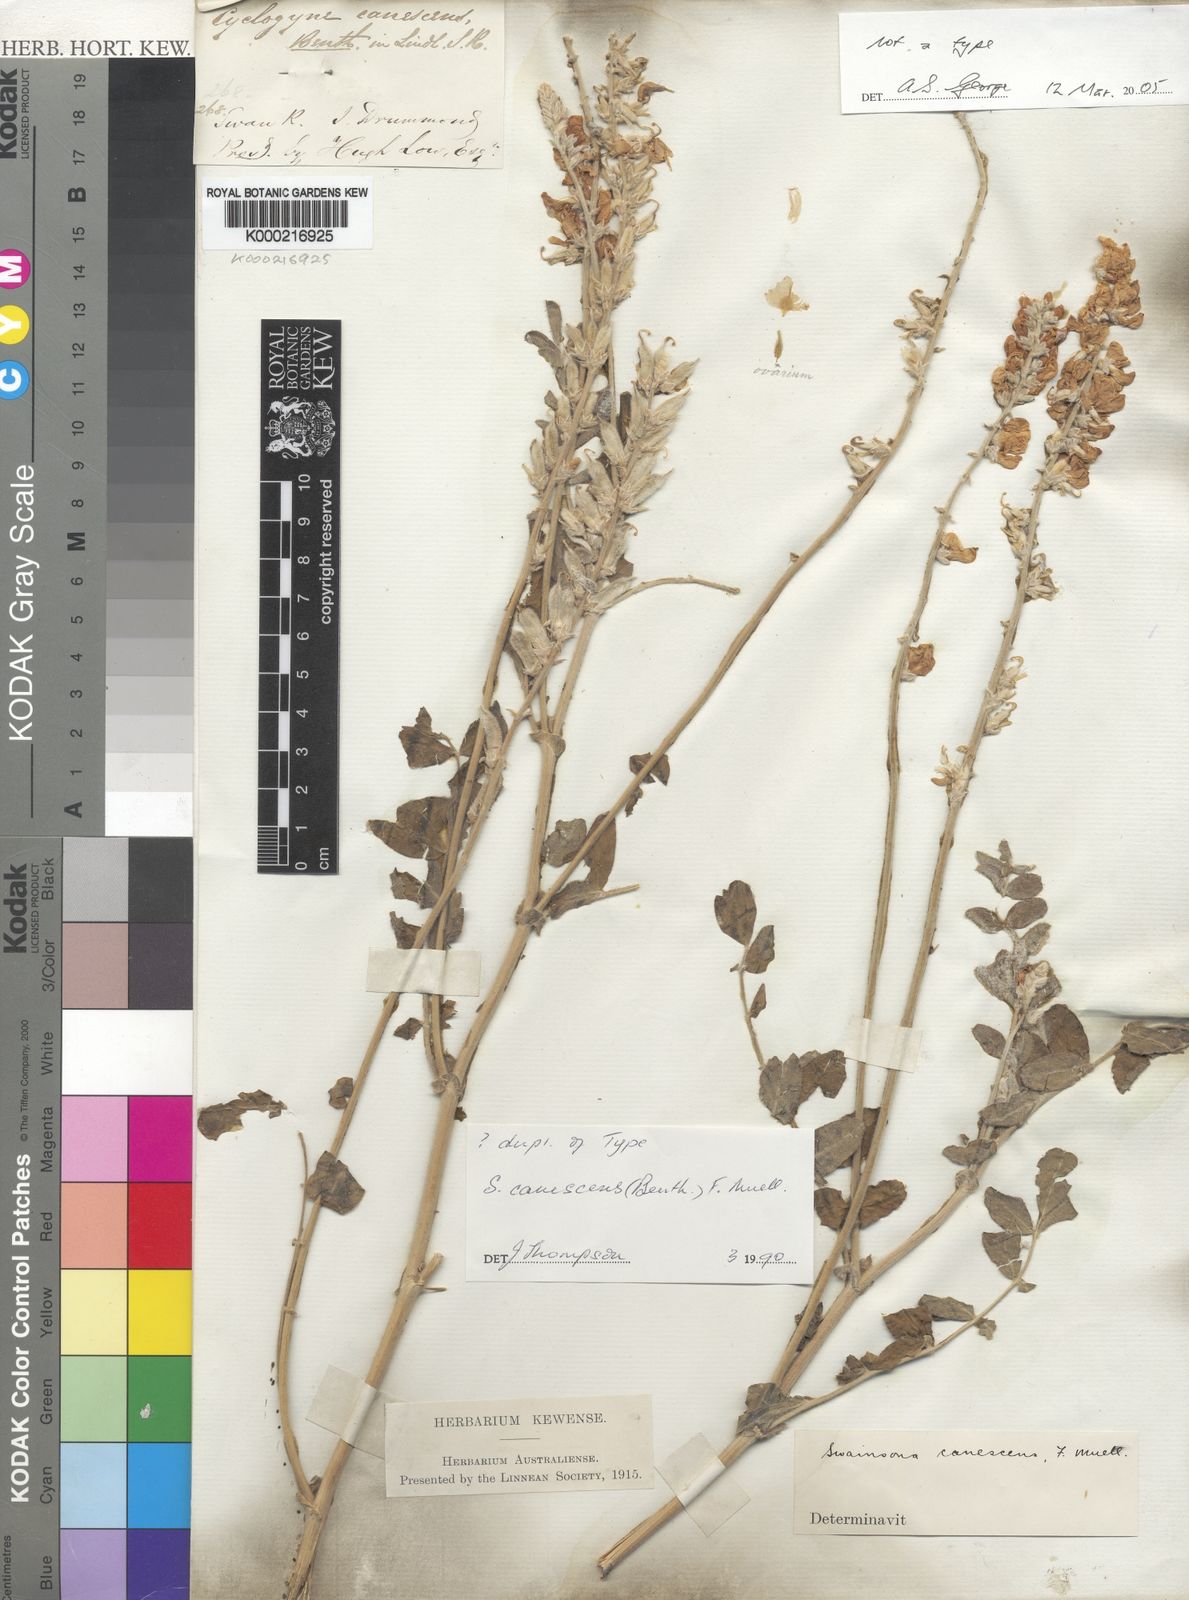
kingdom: Plantae
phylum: Tracheophyta
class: Magnoliopsida
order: Fabales
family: Fabaceae
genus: Swainsona
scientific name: Swainsona canescens
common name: Grey swainsona
